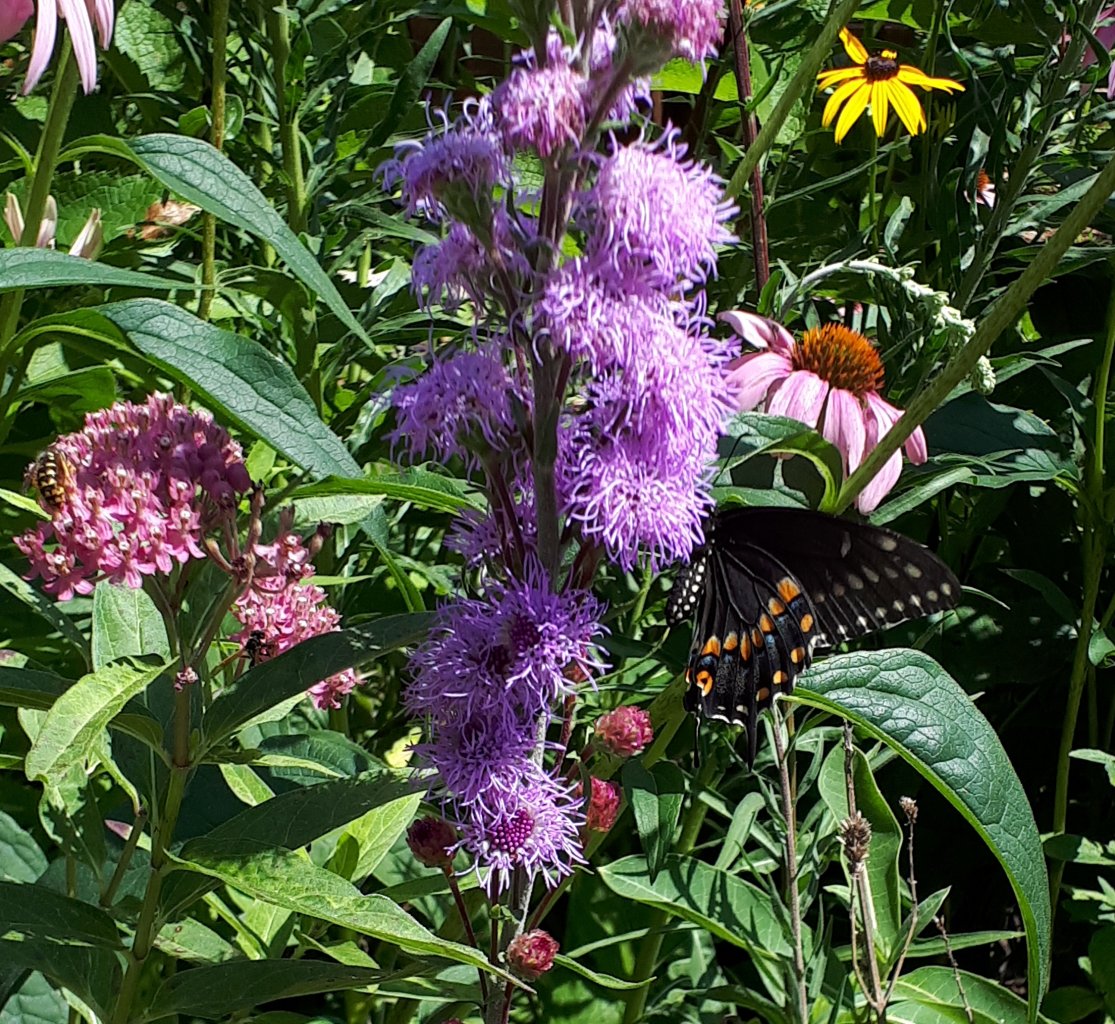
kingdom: Animalia
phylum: Arthropoda
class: Insecta
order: Lepidoptera
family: Papilionidae
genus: Papilio
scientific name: Papilio polyxenes
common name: Black Swallowtail
